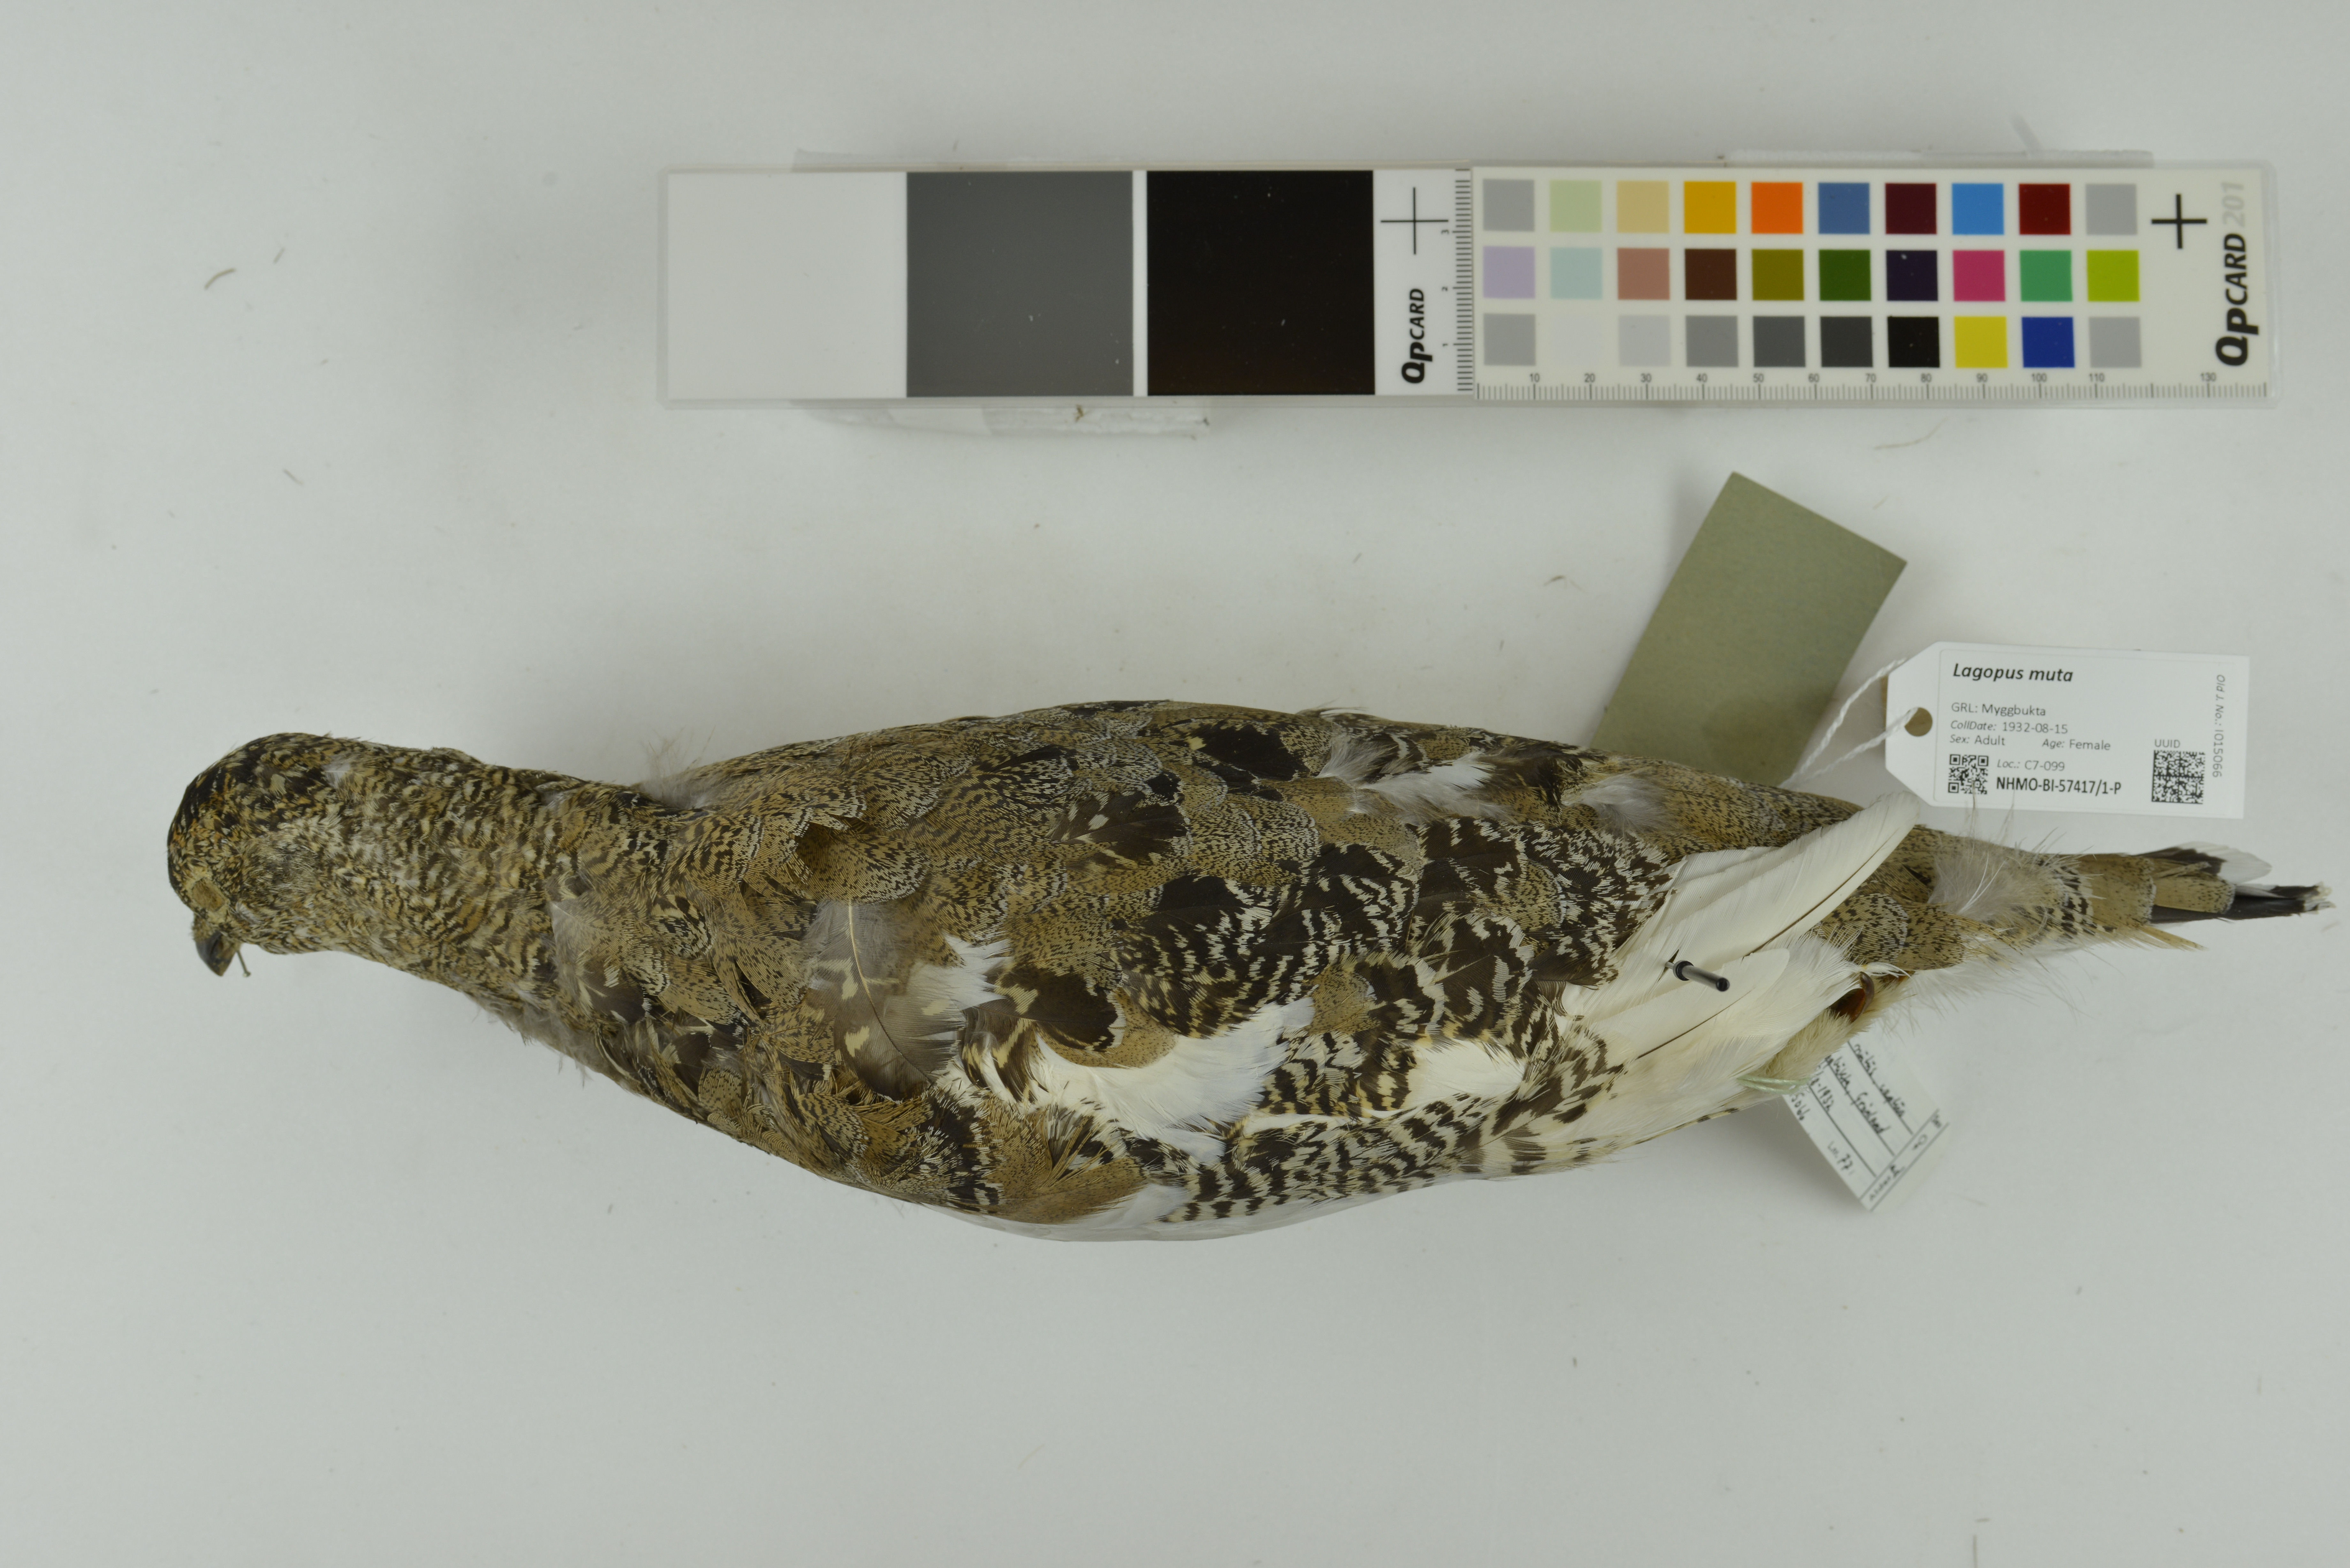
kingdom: Animalia
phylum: Chordata
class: Aves
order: Galliformes
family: Phasianidae
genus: Lagopus
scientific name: Lagopus muta
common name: Rock ptarmigan
